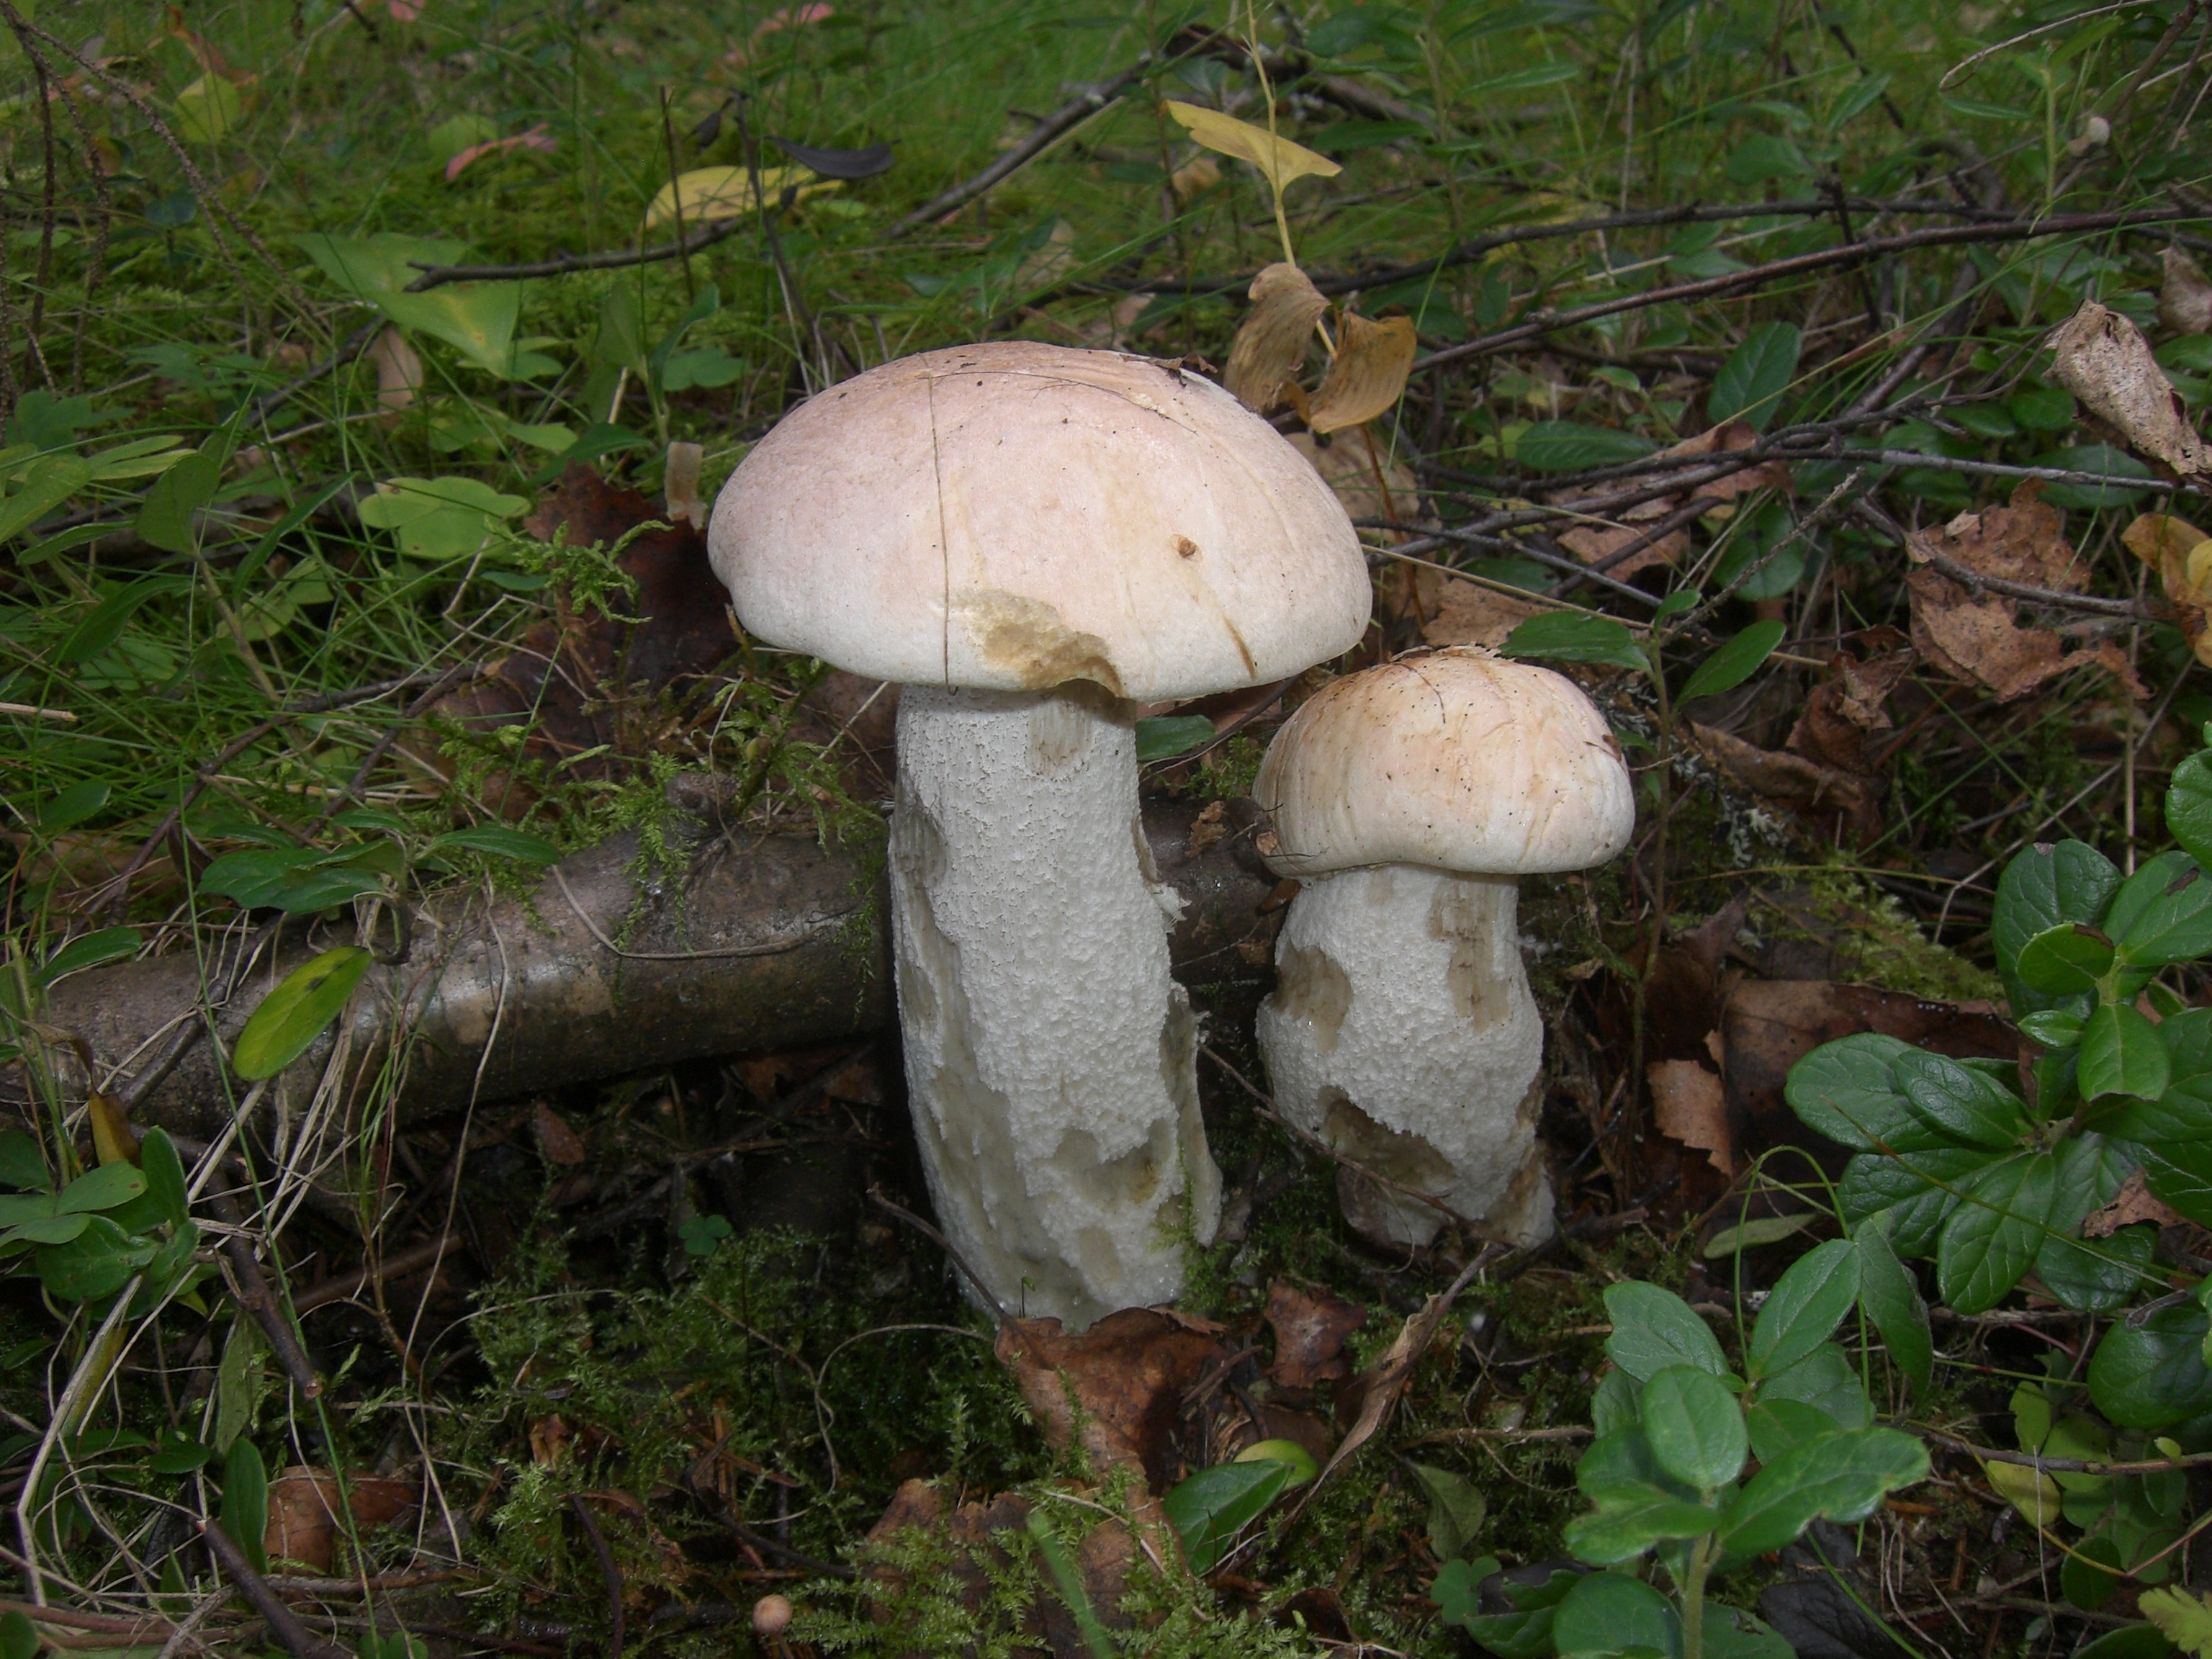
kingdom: Fungi
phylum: Basidiomycota
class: Agaricomycetes
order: Boletales
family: Boletaceae
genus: Leccinum
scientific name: Leccinum versipelle
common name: Orange birch bolete
